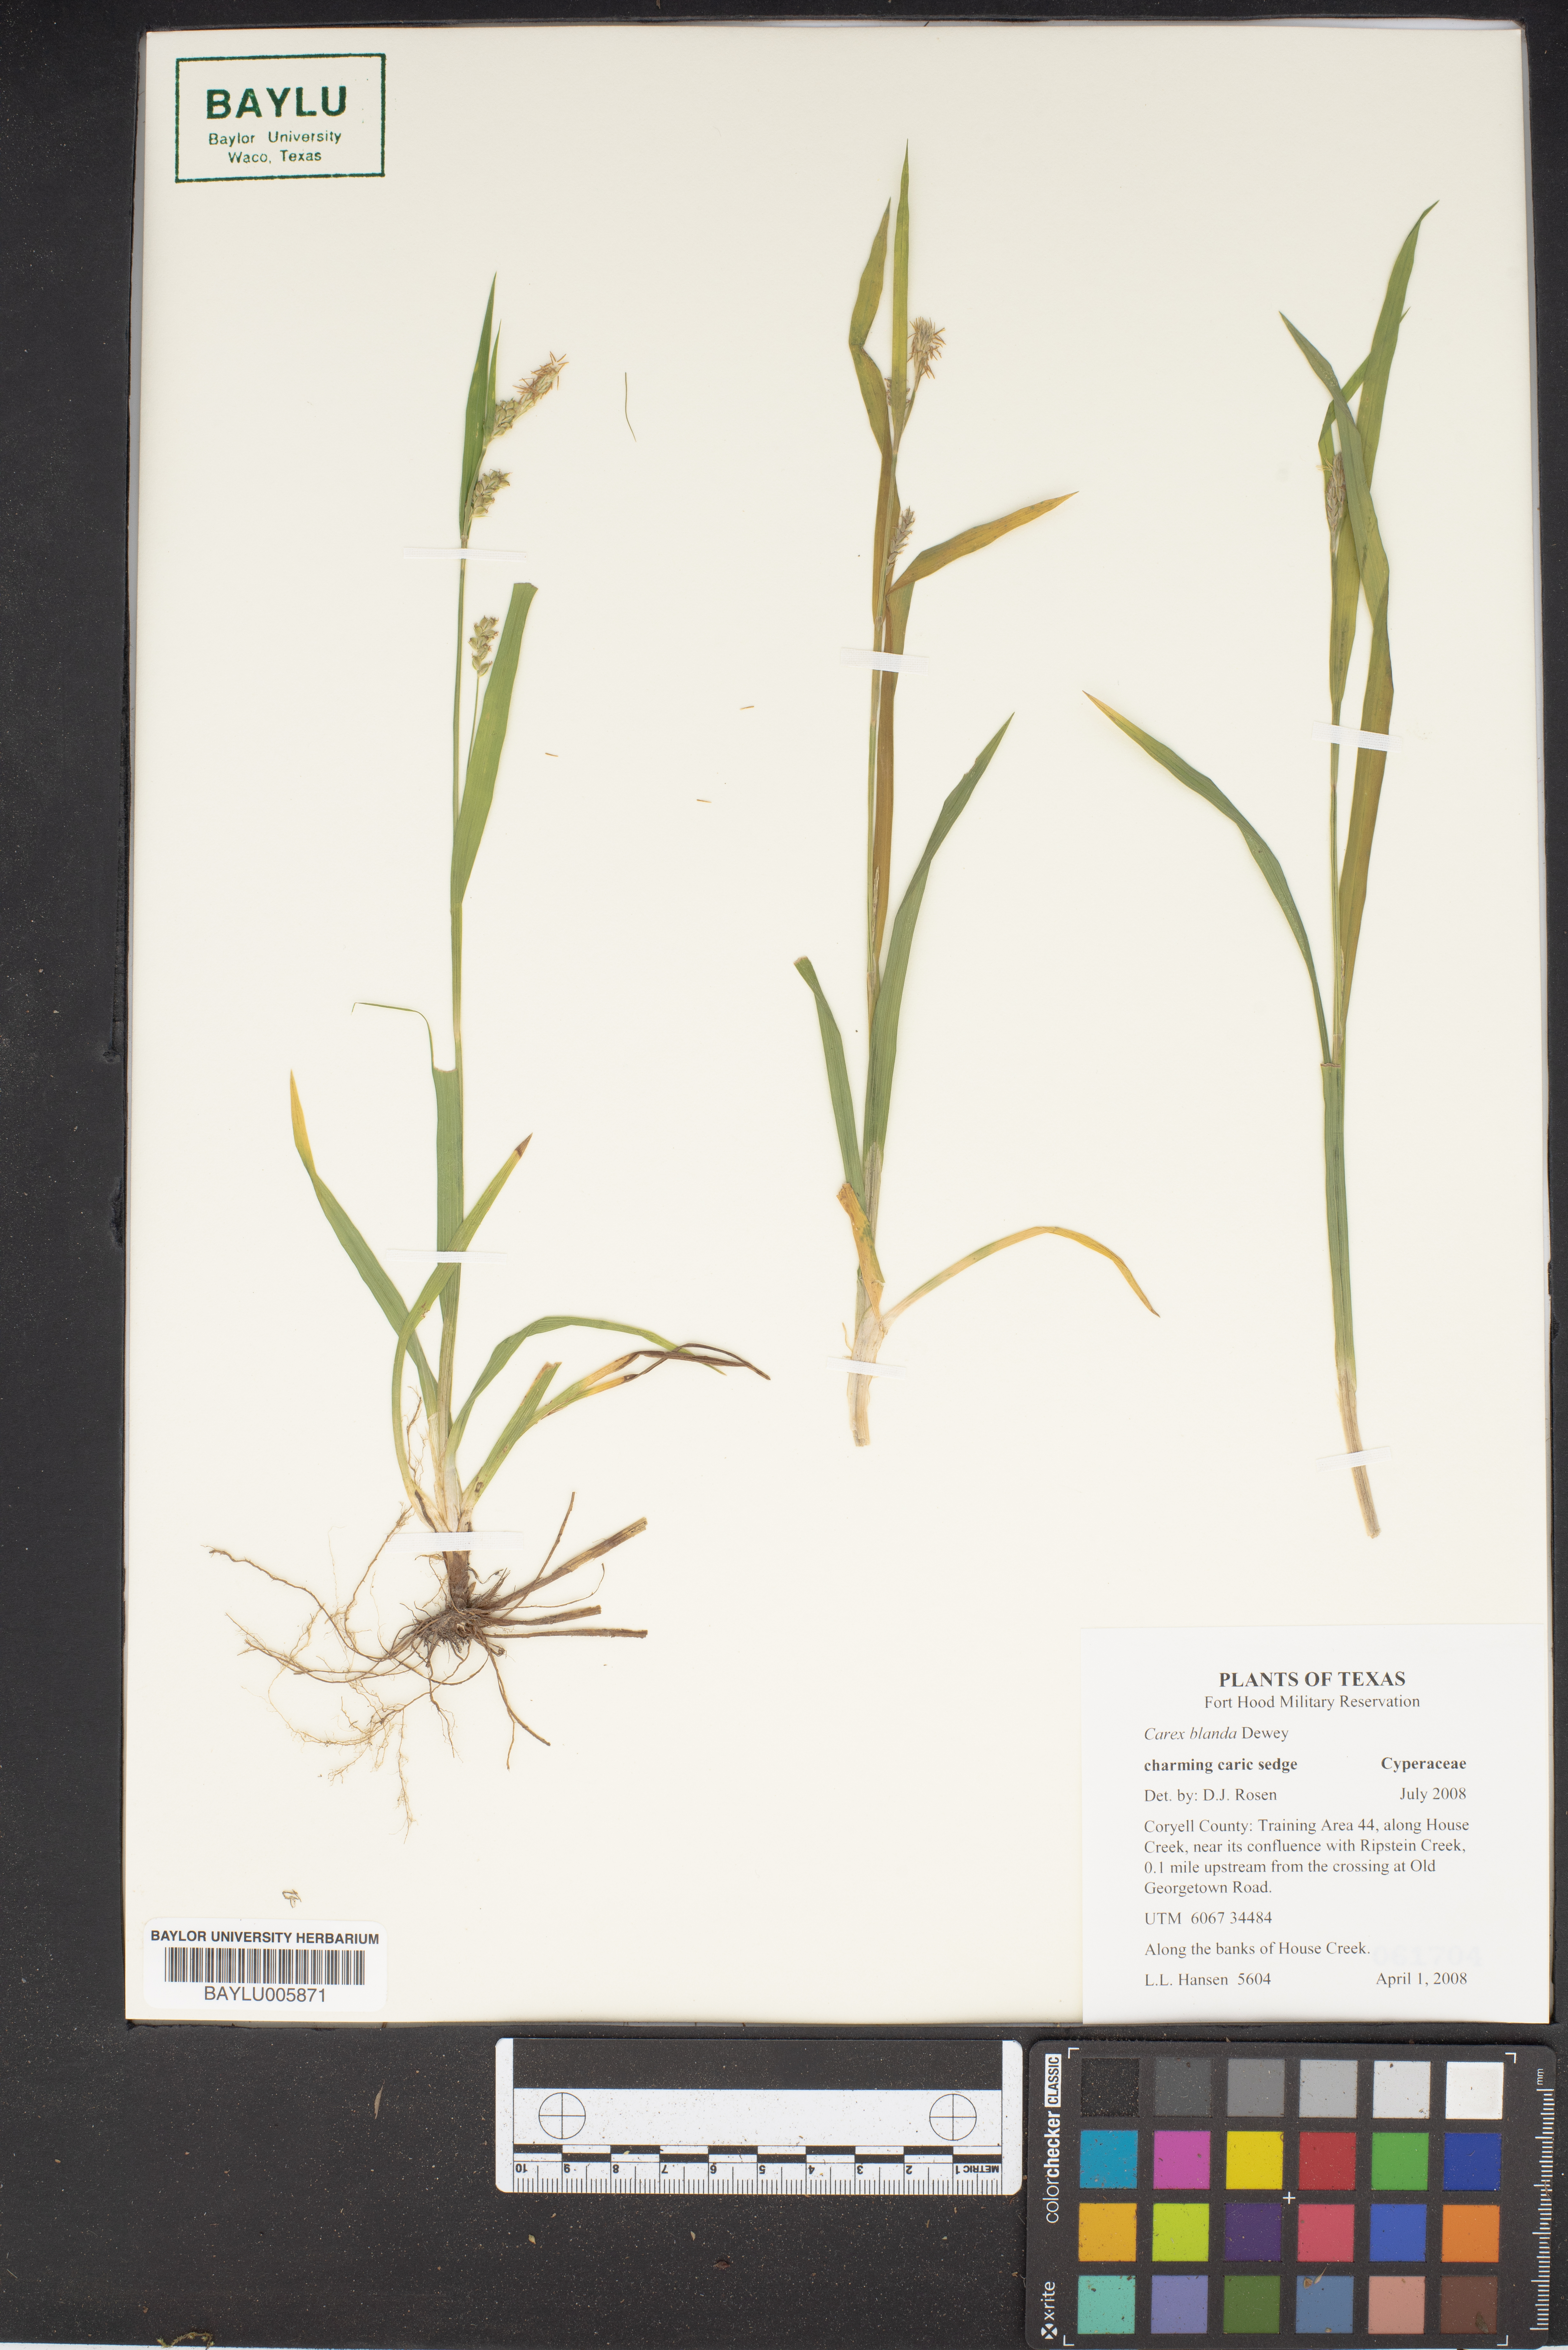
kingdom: Plantae
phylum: Tracheophyta
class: Liliopsida
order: Poales
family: Cyperaceae
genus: Carex
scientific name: Carex blanda
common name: Bland sedge
